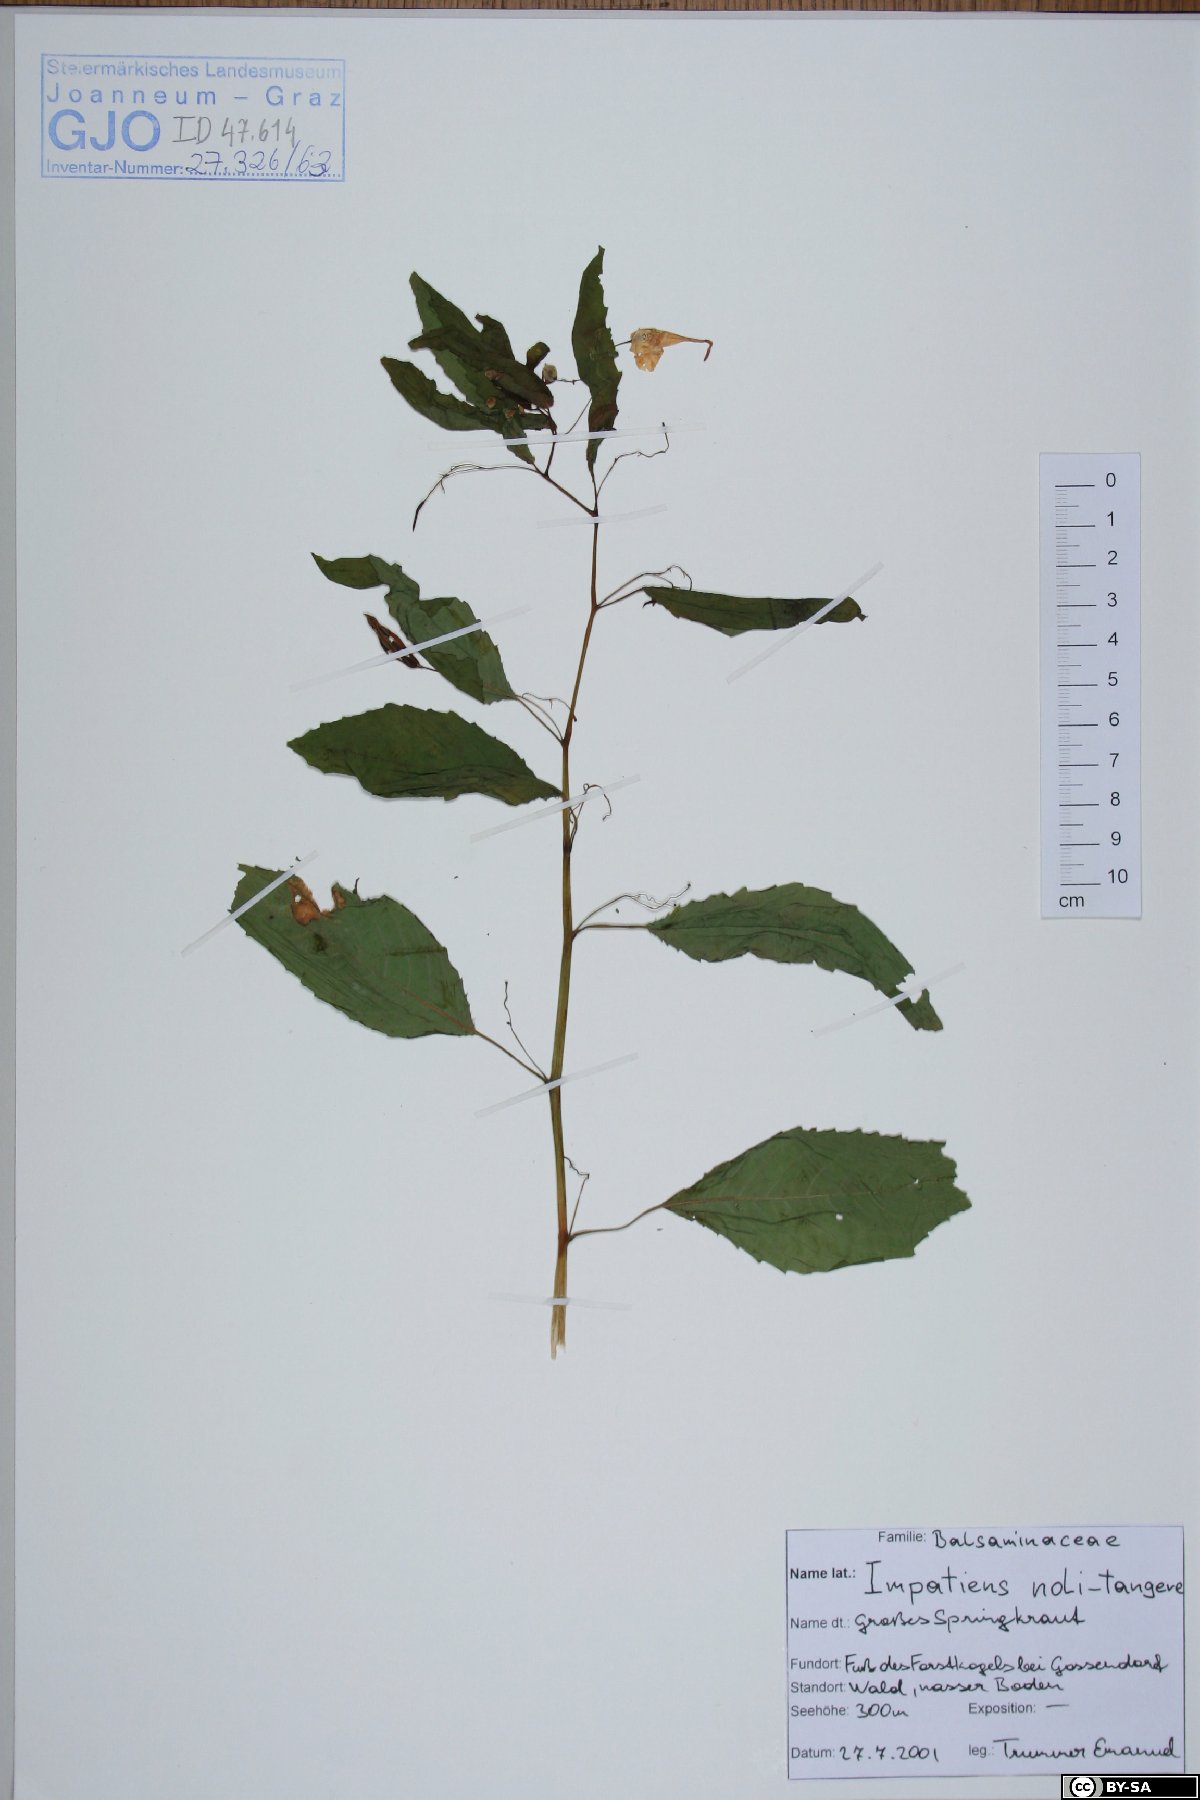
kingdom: Plantae
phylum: Tracheophyta
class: Magnoliopsida
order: Ericales
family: Balsaminaceae
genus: Impatiens
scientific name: Impatiens noli-tangere
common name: Touch-me-not balsam
